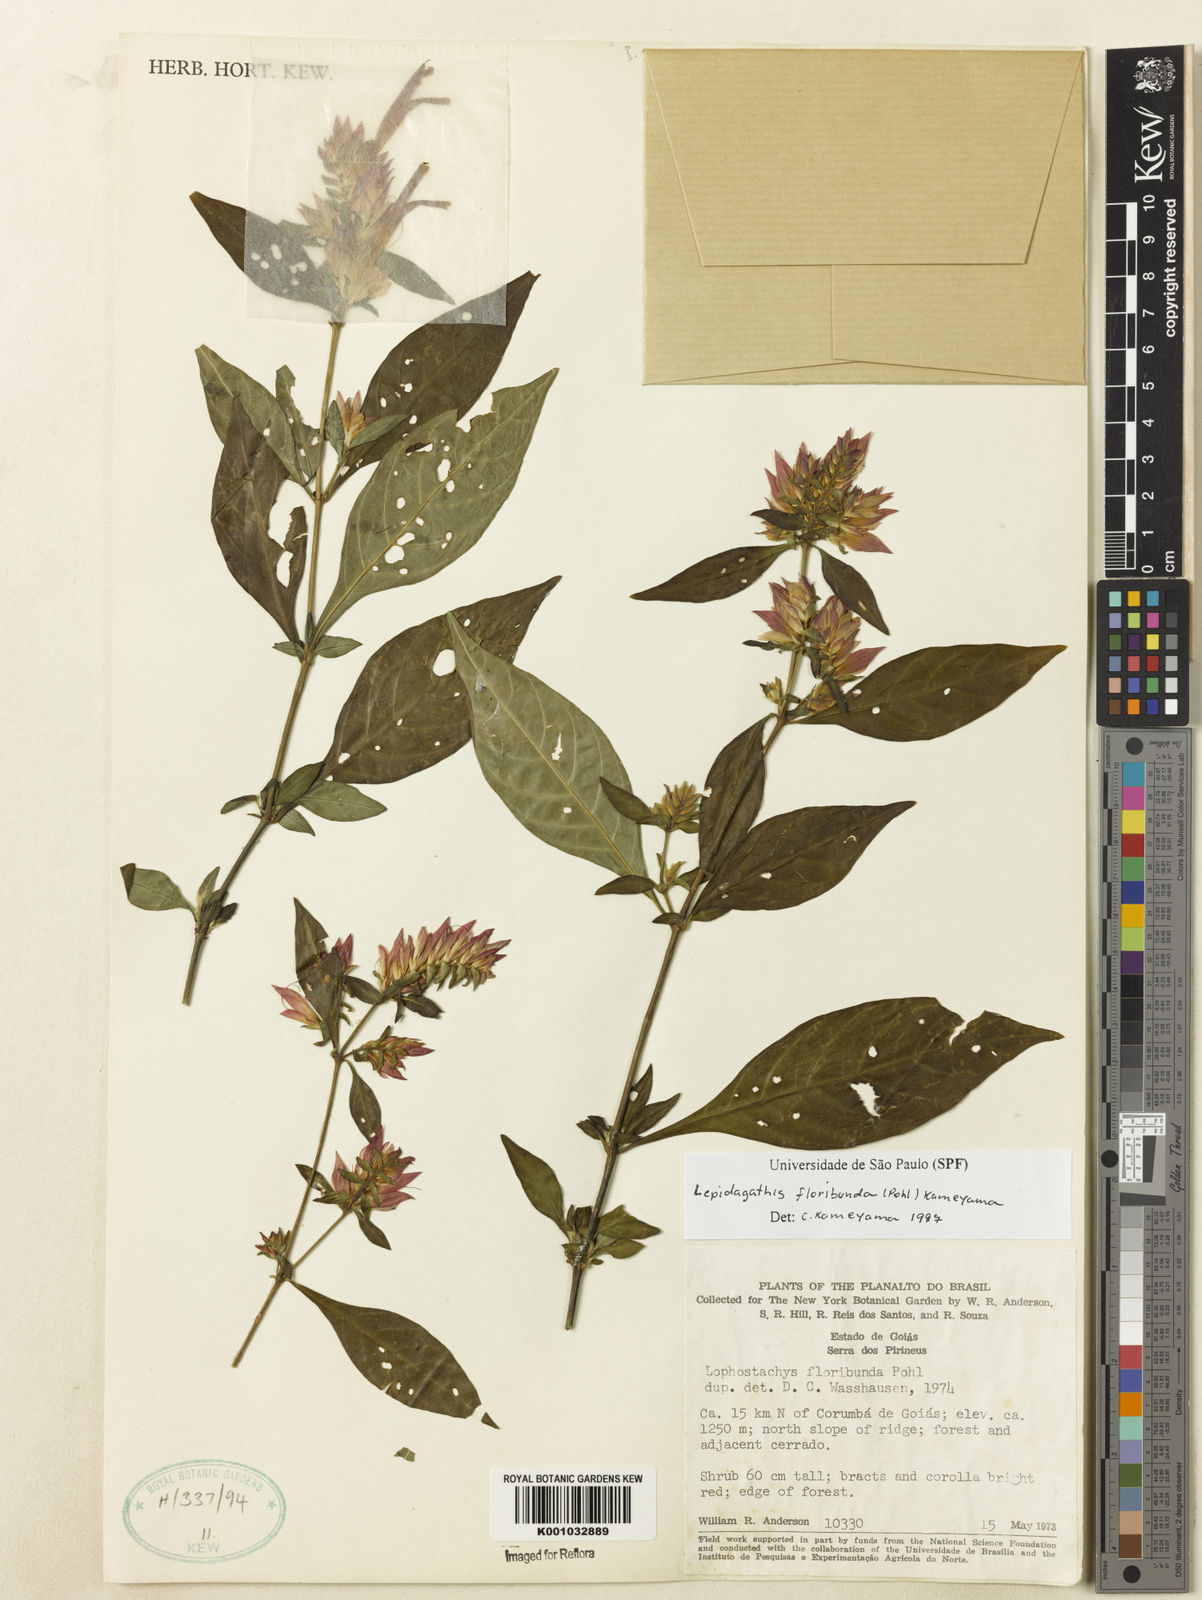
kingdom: Plantae
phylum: Tracheophyta
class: Magnoliopsida
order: Lamiales
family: Acanthaceae
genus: Lepidagathis
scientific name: Lepidagathis floribunda
